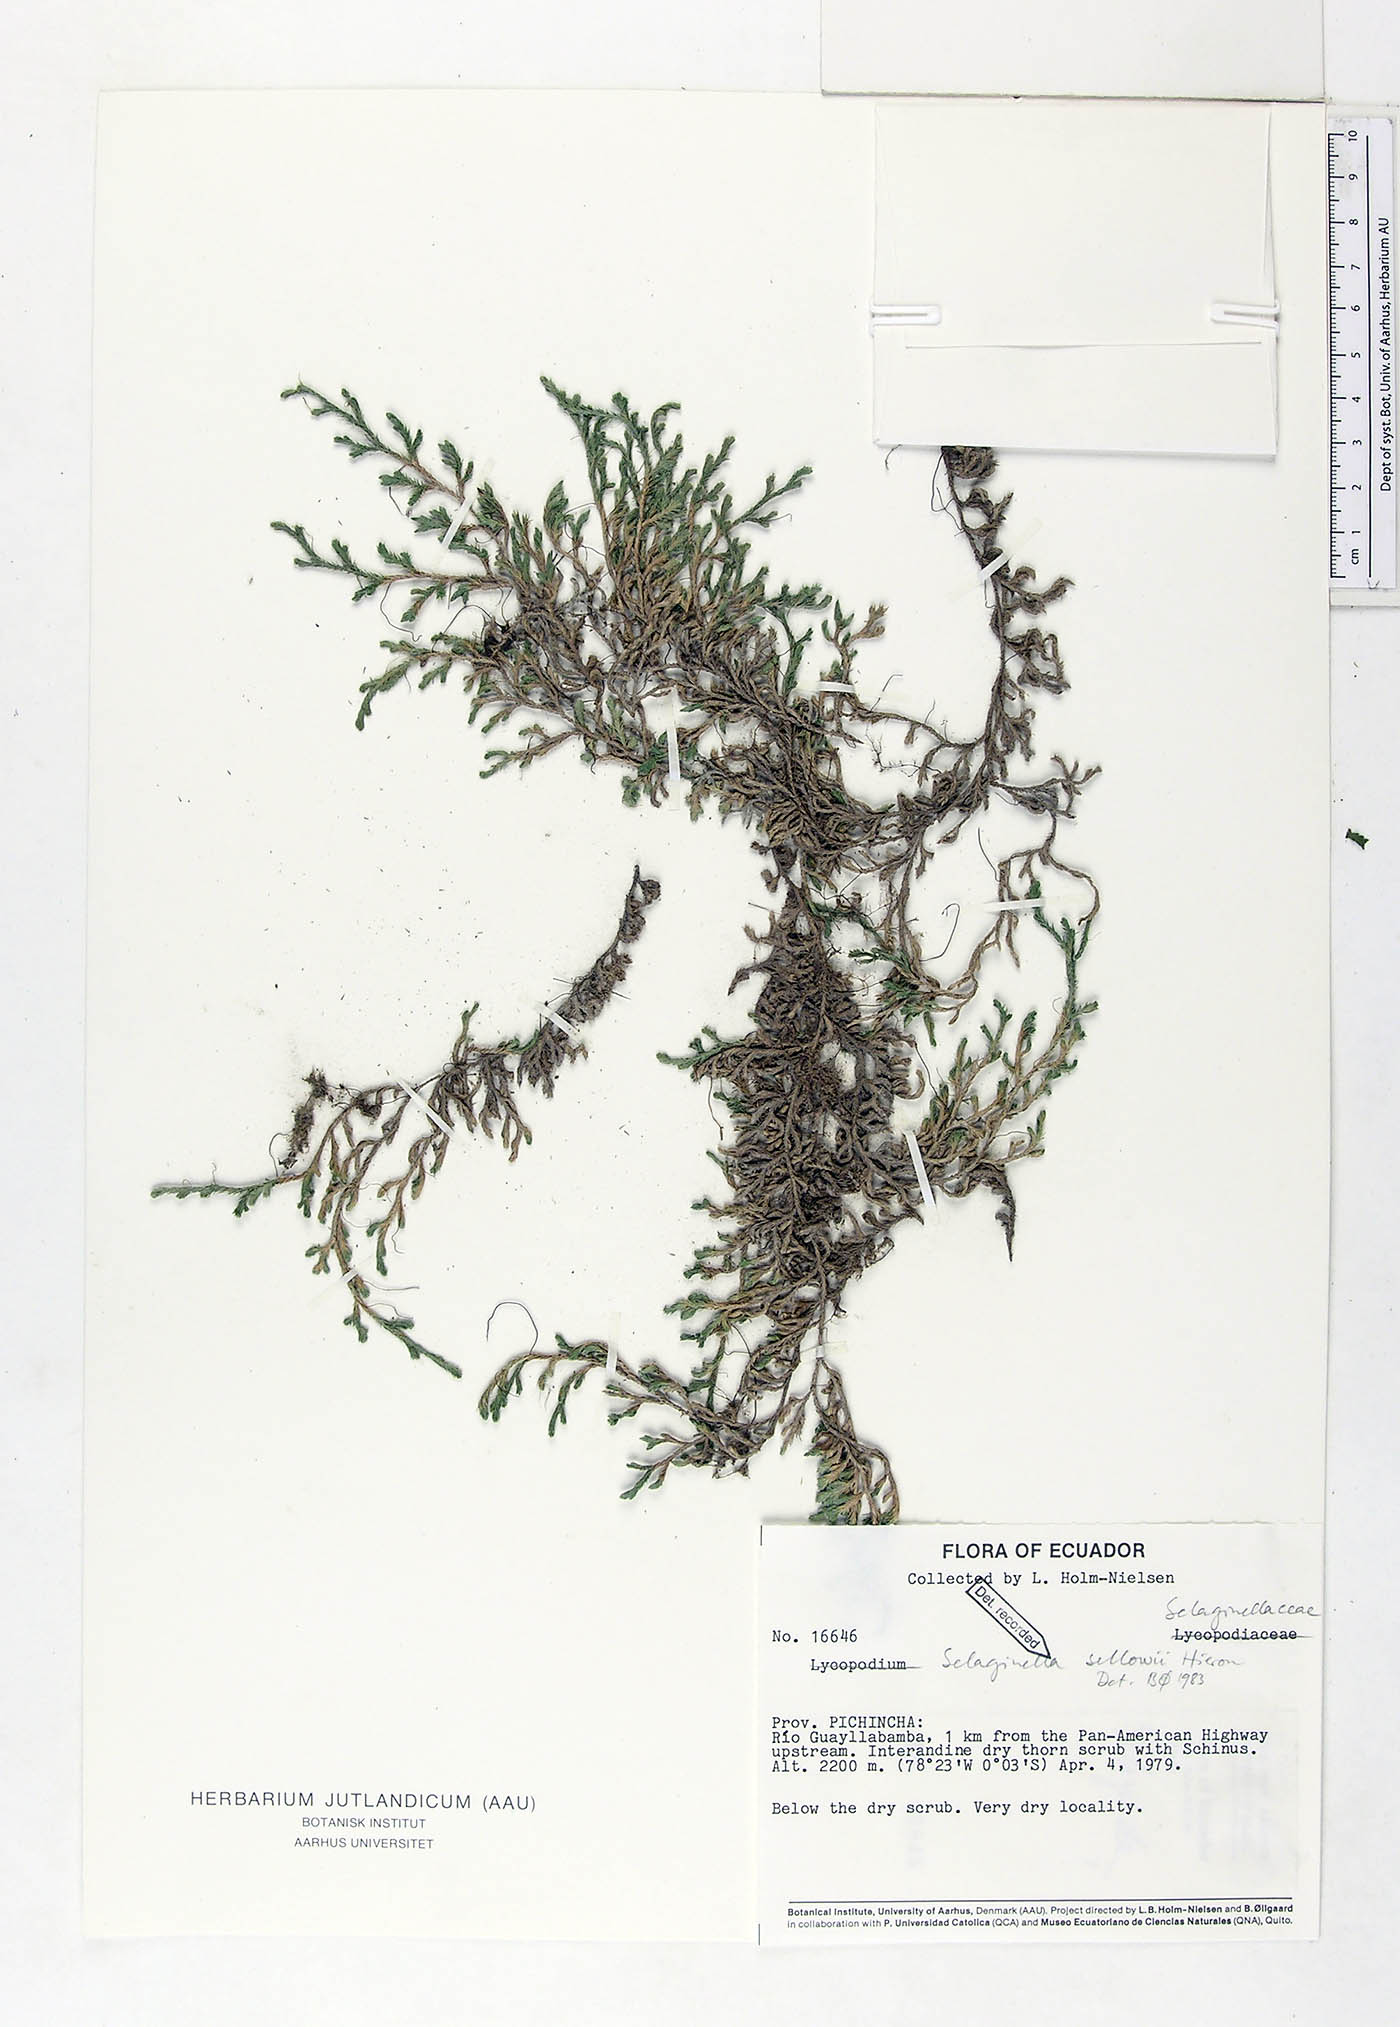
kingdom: Plantae
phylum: Tracheophyta
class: Lycopodiopsida
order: Selaginellales
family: Selaginellaceae
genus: Selaginella
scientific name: Selaginella sellowii
